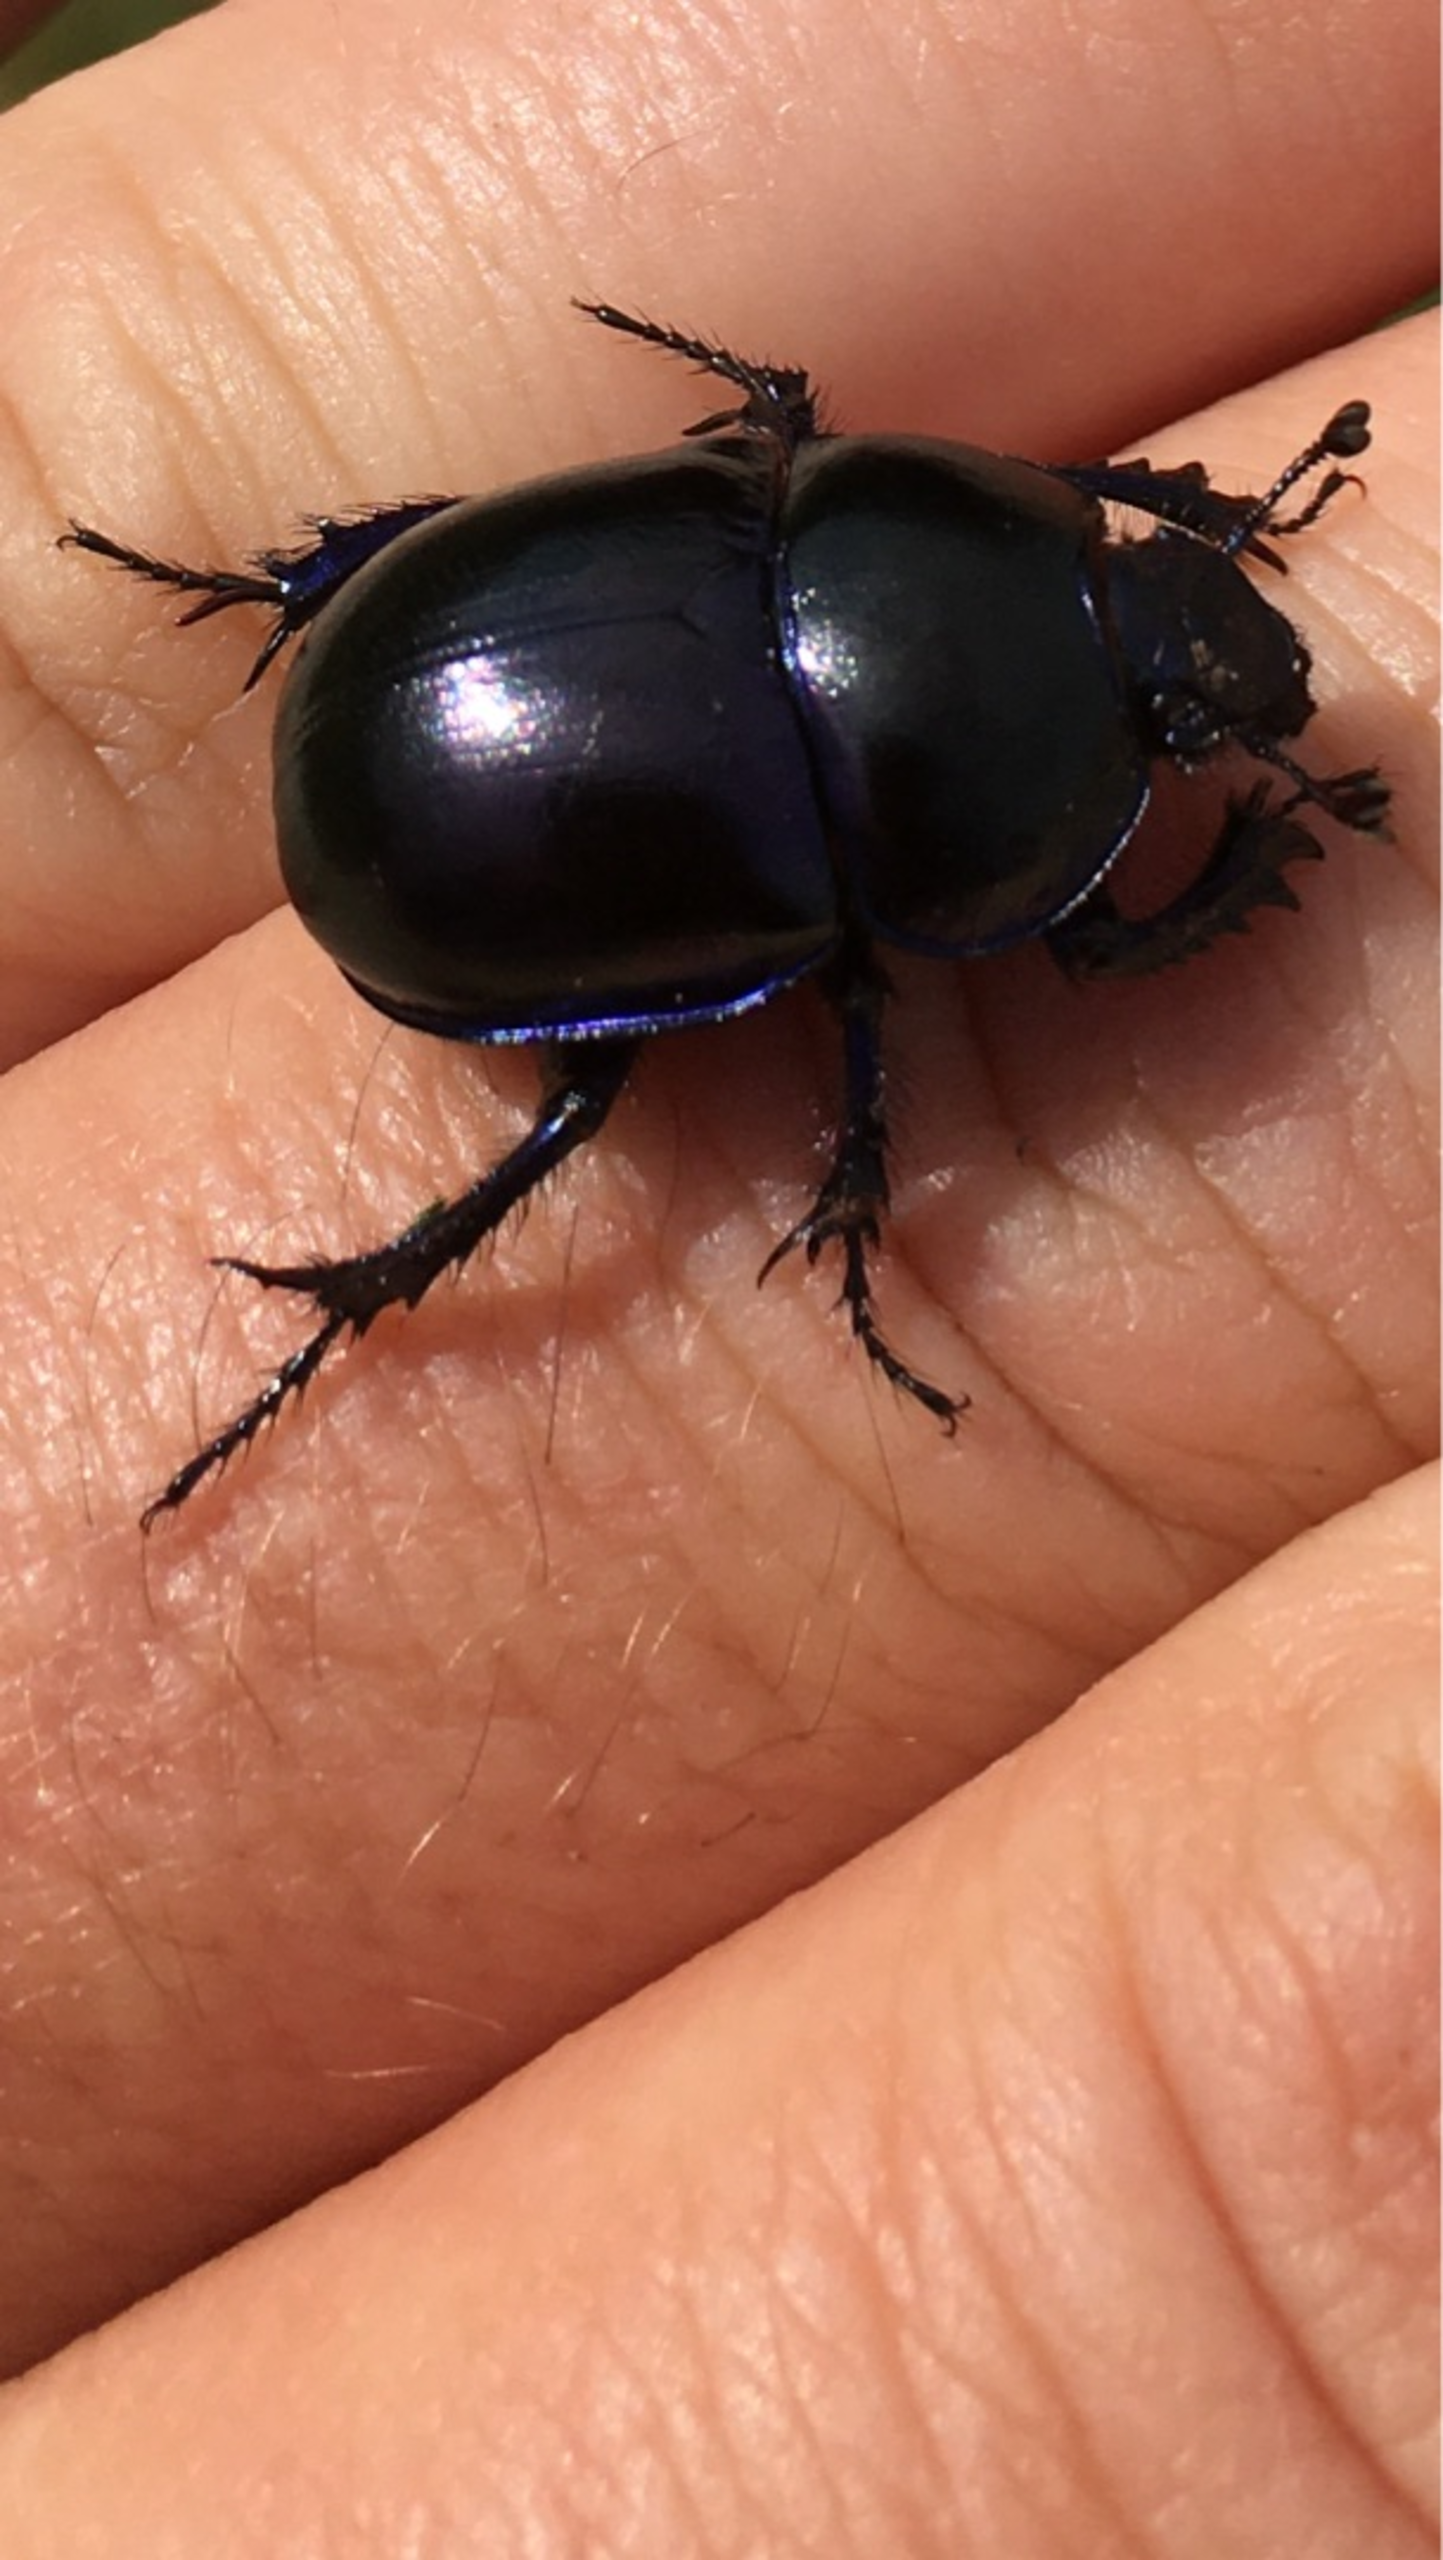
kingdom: Animalia
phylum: Arthropoda
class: Insecta
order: Coleoptera
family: Geotrupidae
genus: Anoplotrupes
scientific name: Anoplotrupes stercorosus
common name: Skovskarnbasse
